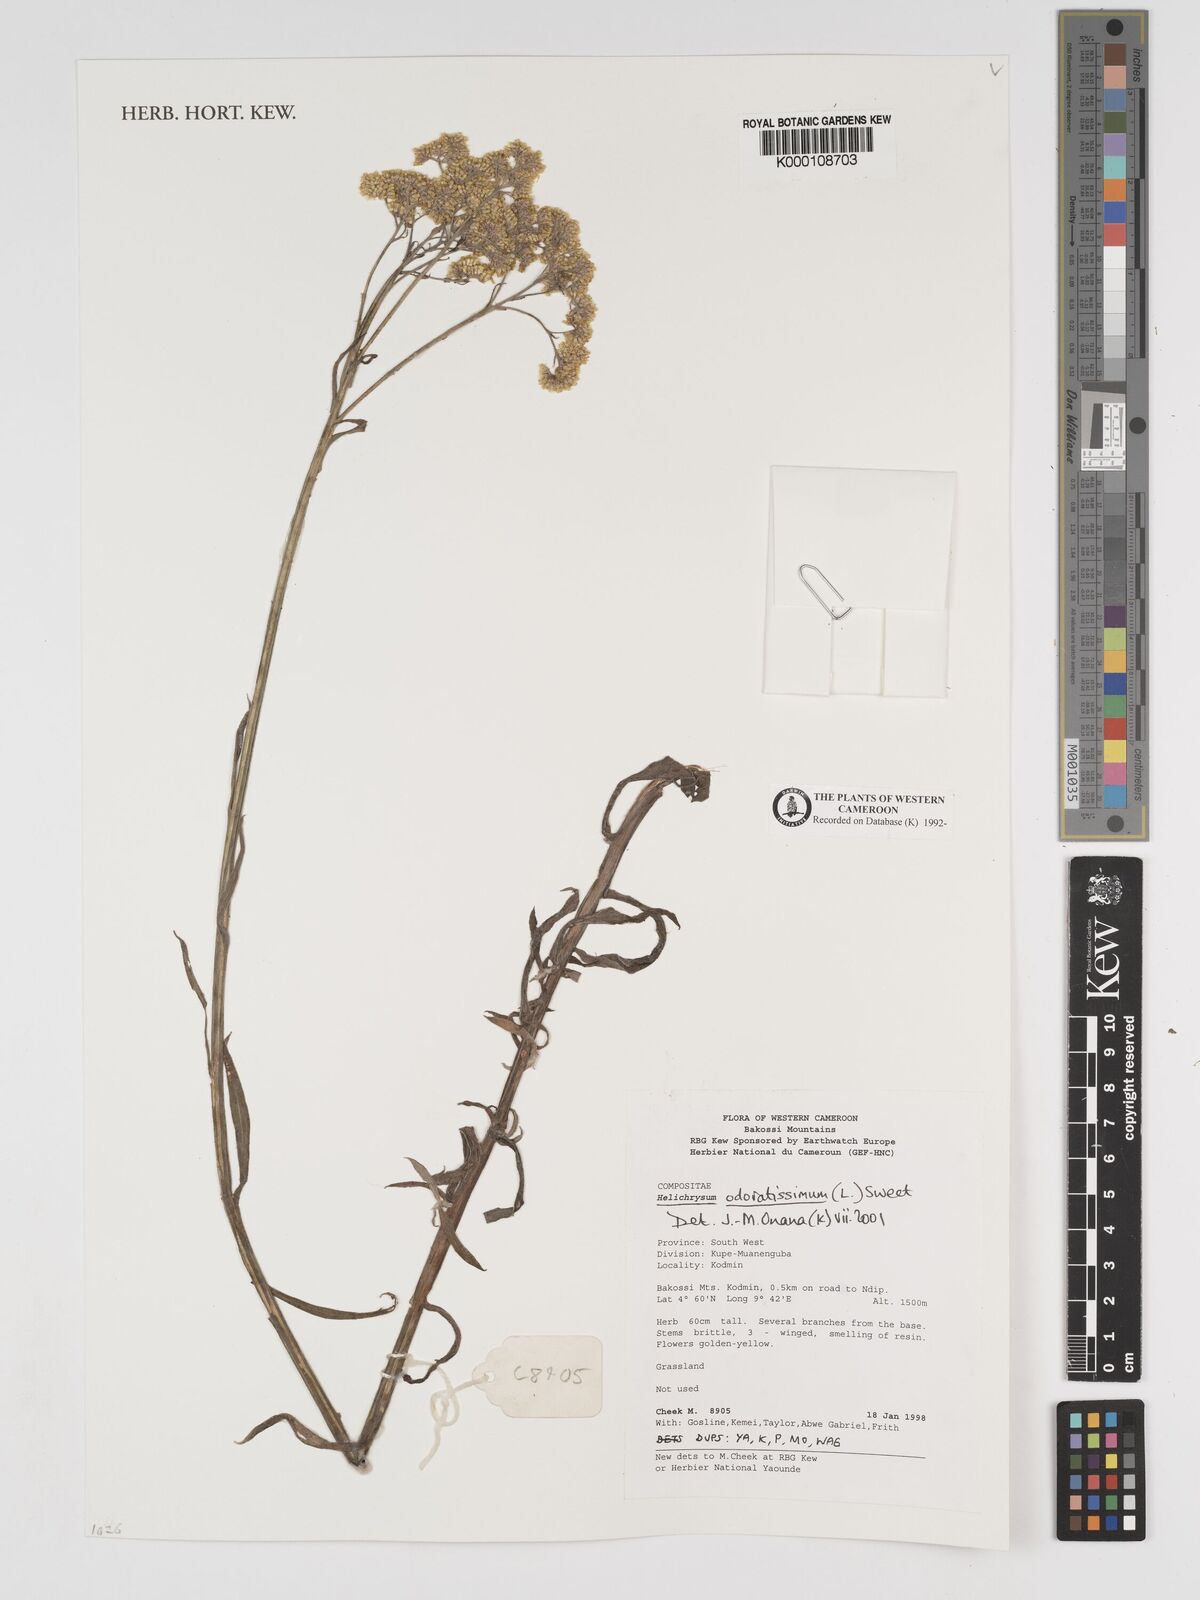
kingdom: Plantae
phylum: Tracheophyta
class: Magnoliopsida
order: Asterales
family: Asteraceae
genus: Helichrysum
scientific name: Helichrysum odoratissimum
